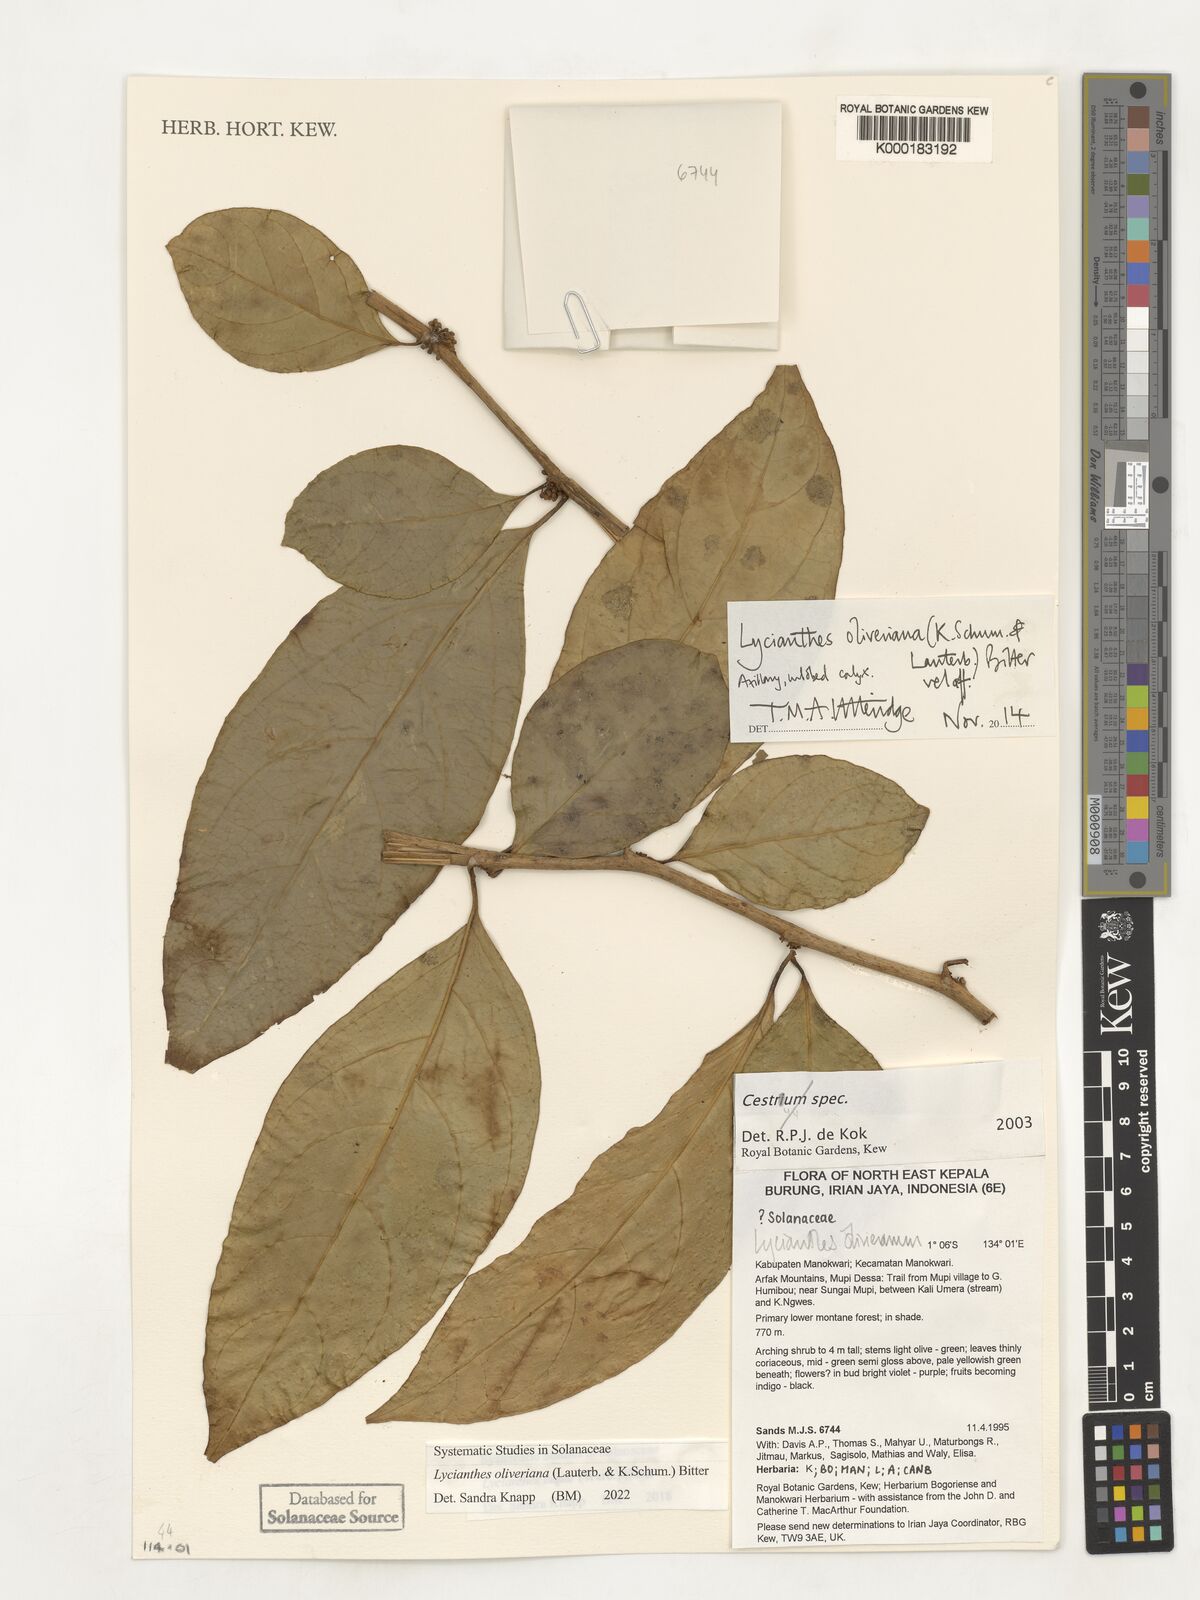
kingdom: Plantae
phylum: Tracheophyta
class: Magnoliopsida
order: Solanales
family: Solanaceae
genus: Lycianthes
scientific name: Lycianthes oliveriana
